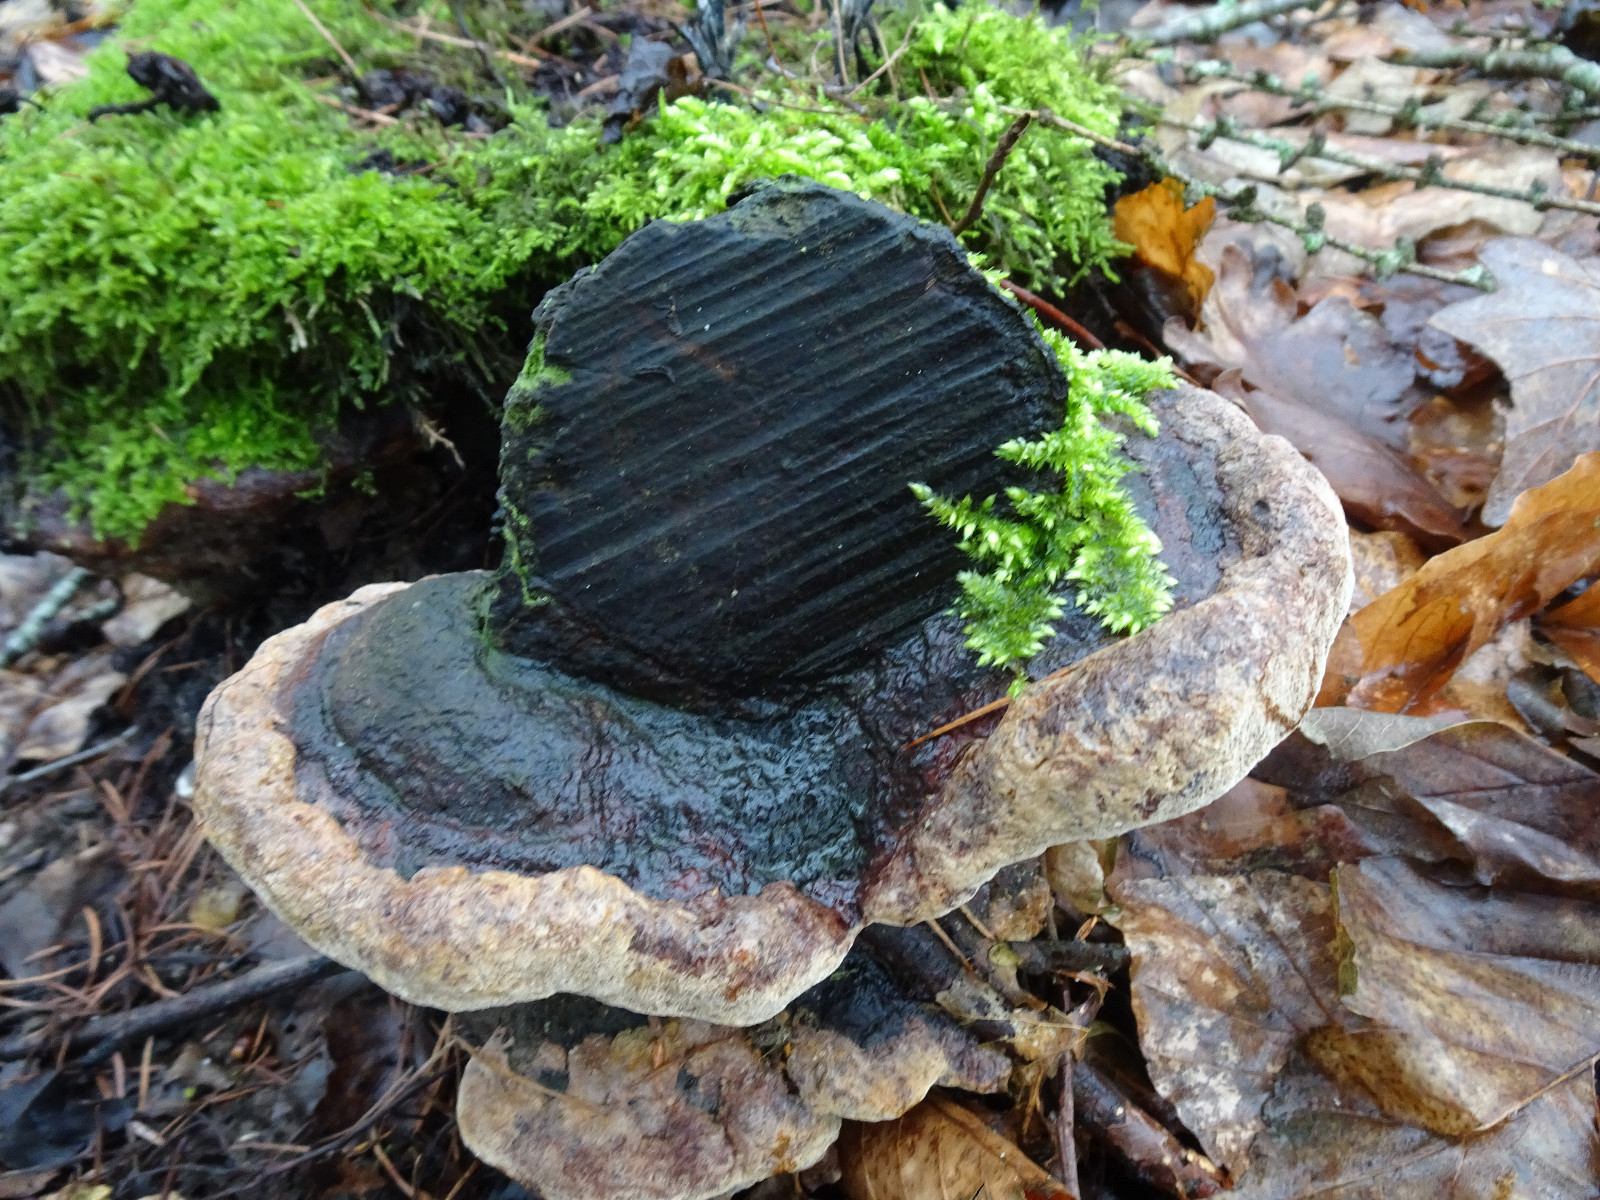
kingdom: Fungi
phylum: Basidiomycota
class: Agaricomycetes
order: Polyporales
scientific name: Polyporales
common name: poresvampordenen
